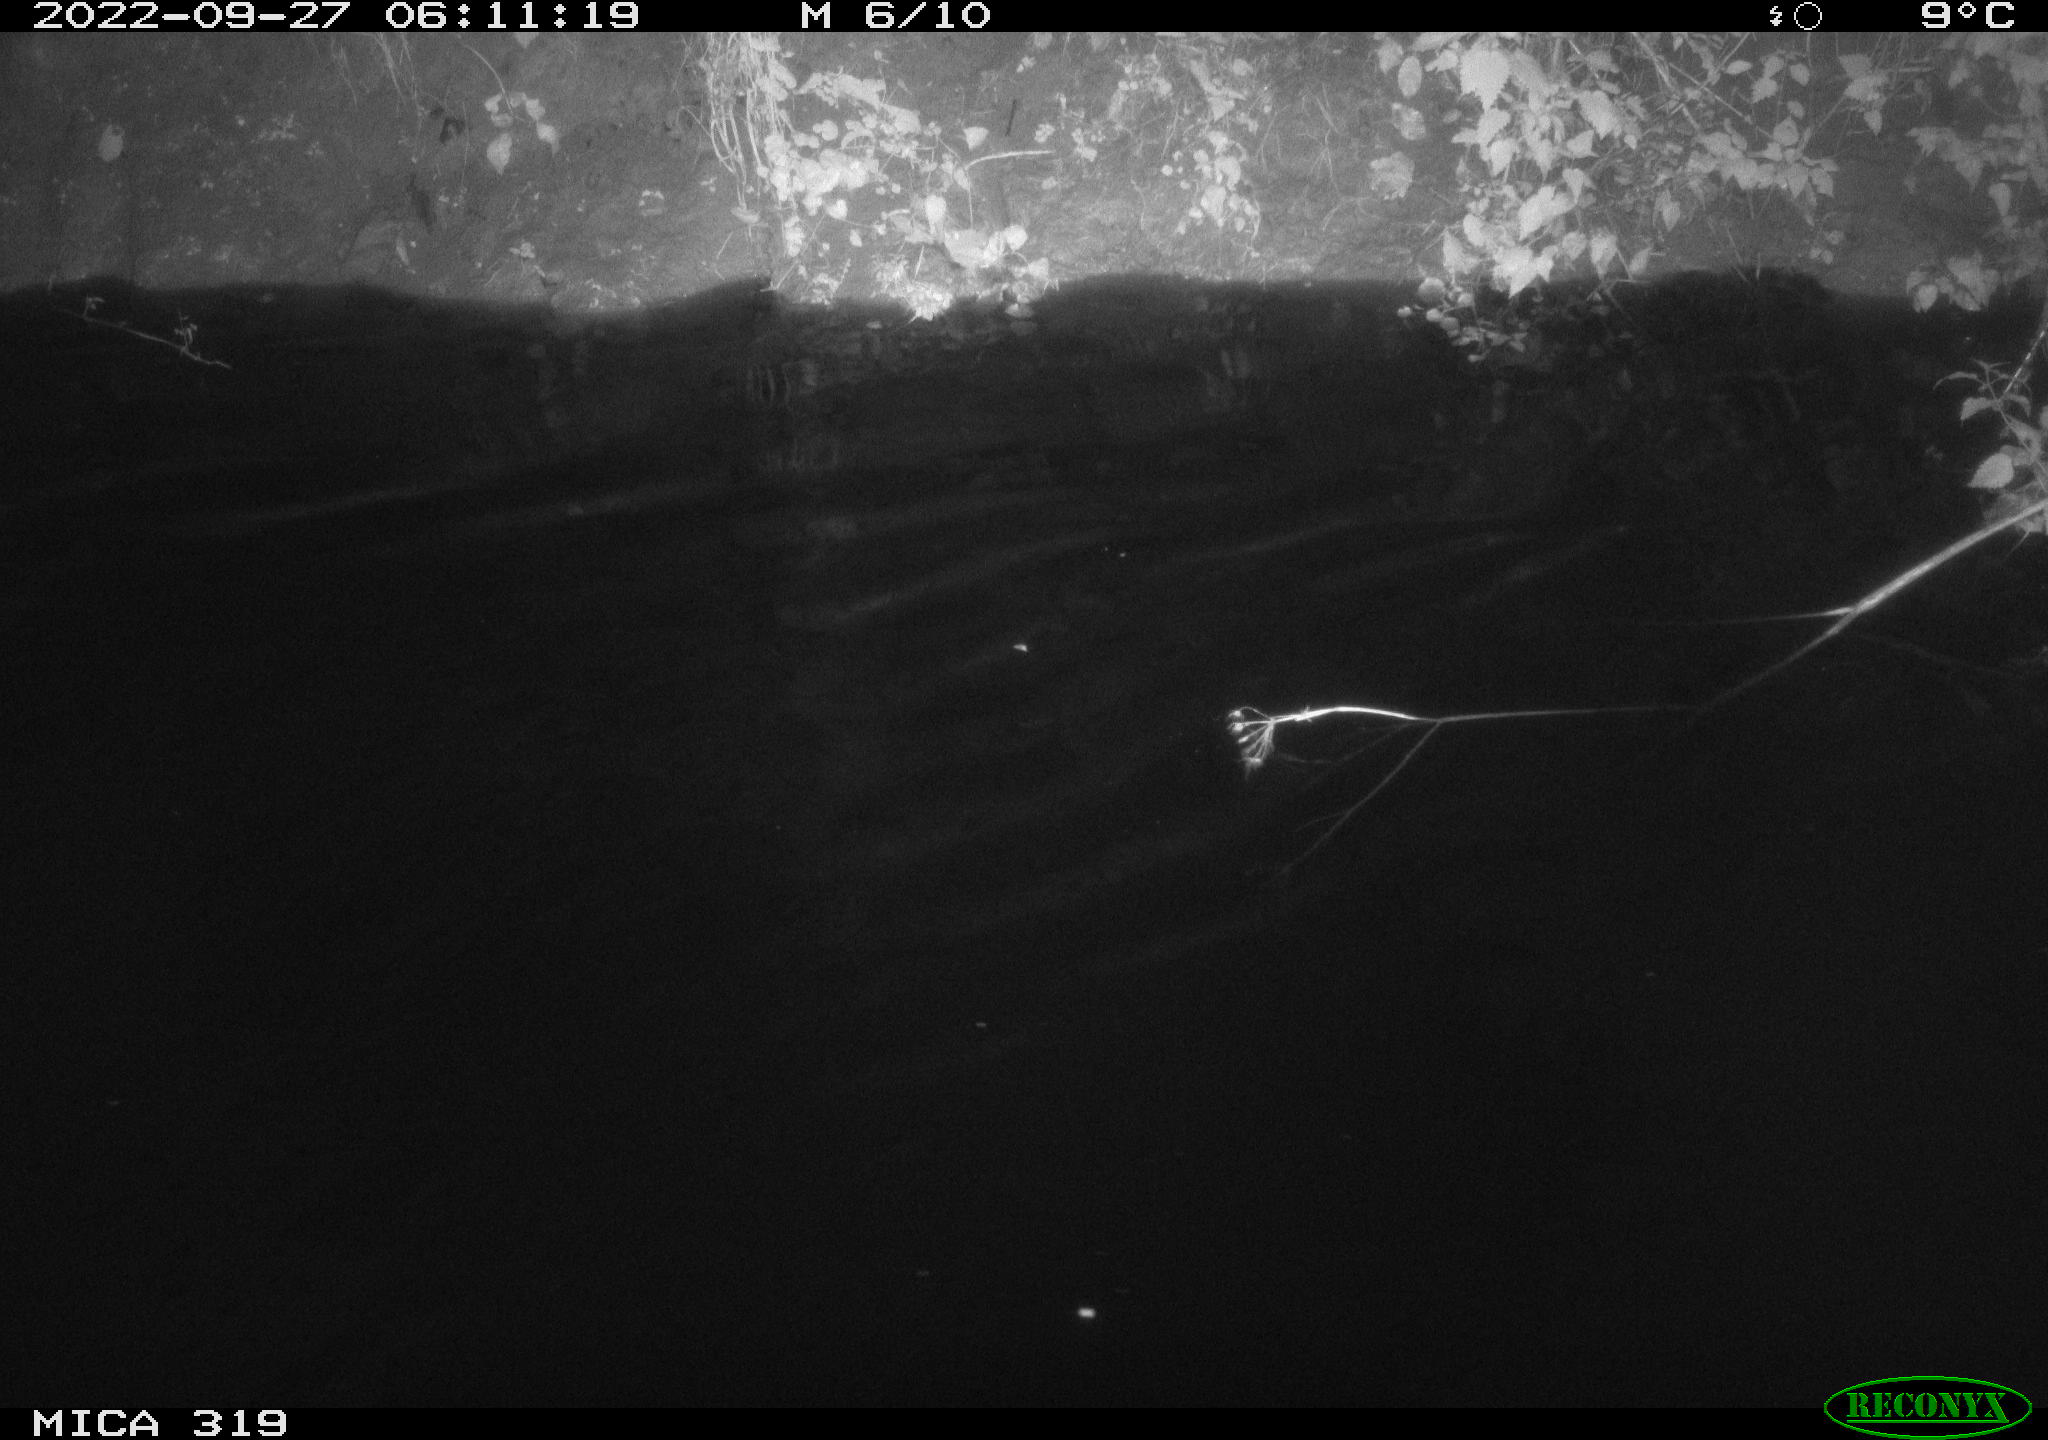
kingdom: Animalia
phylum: Chordata
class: Aves
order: Anseriformes
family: Anatidae
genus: Anas
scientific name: Anas
